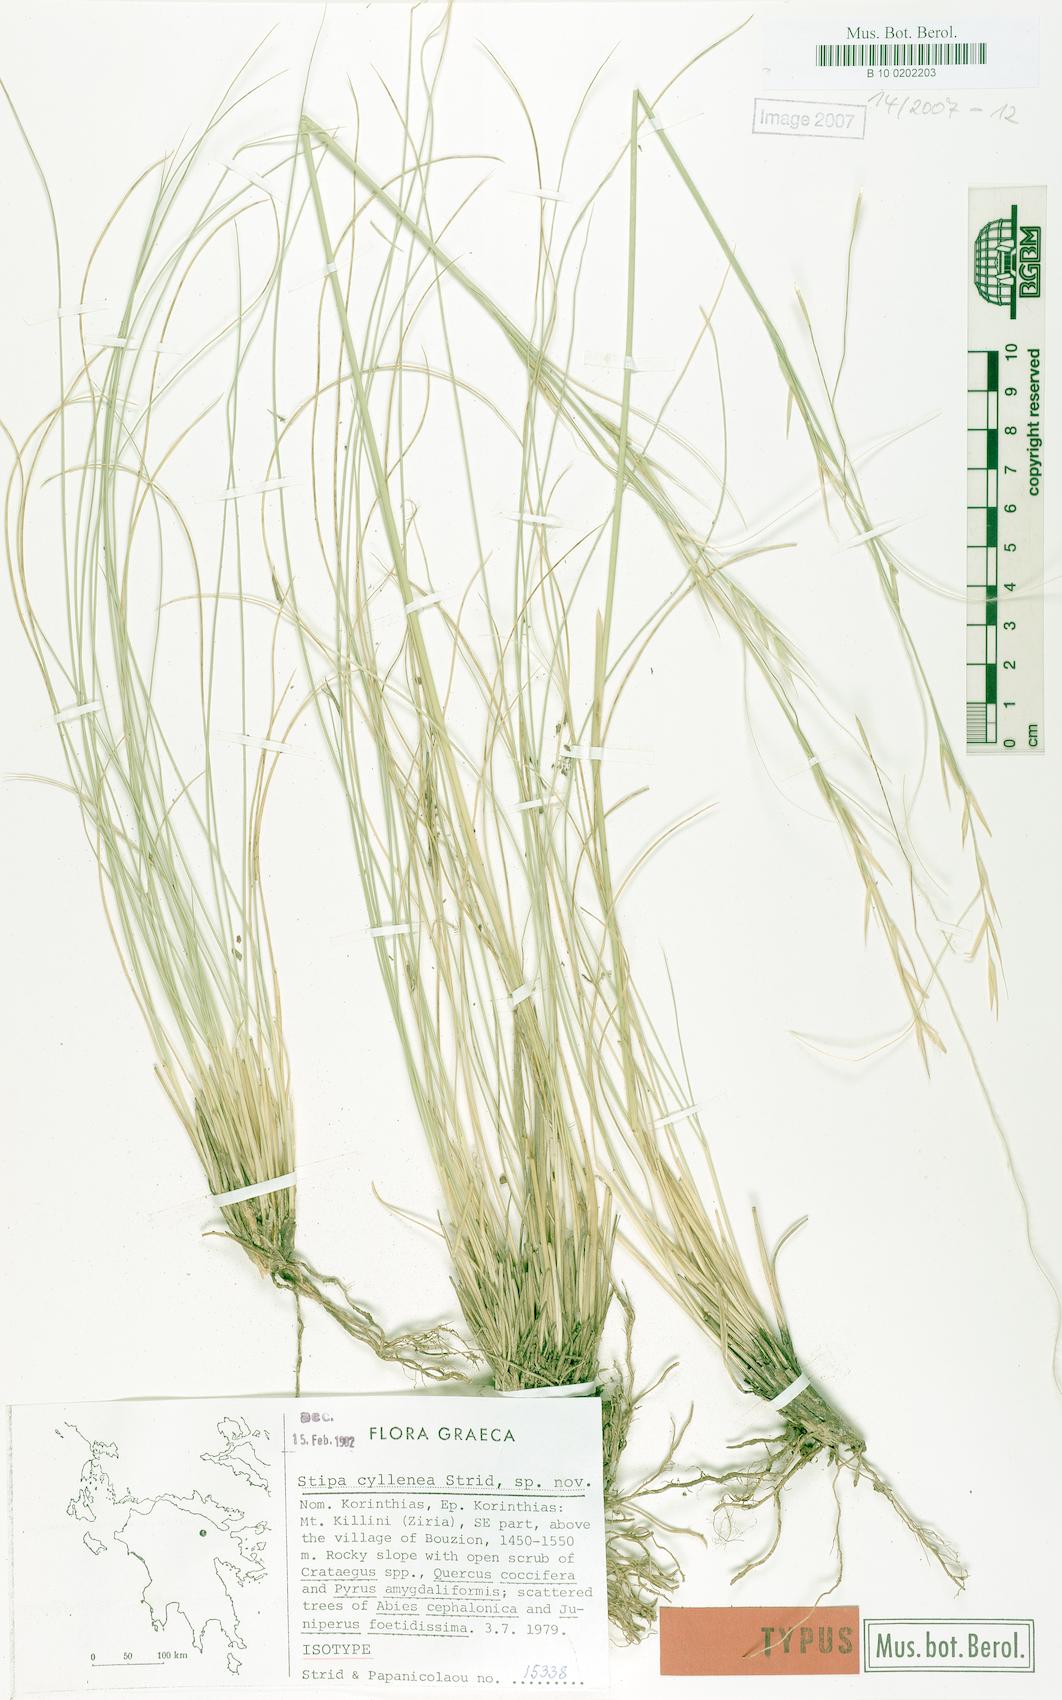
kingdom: Plantae
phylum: Tracheophyta
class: Liliopsida
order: Poales
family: Poaceae
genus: Stipa
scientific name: Stipa lessingiana
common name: Needle grass
